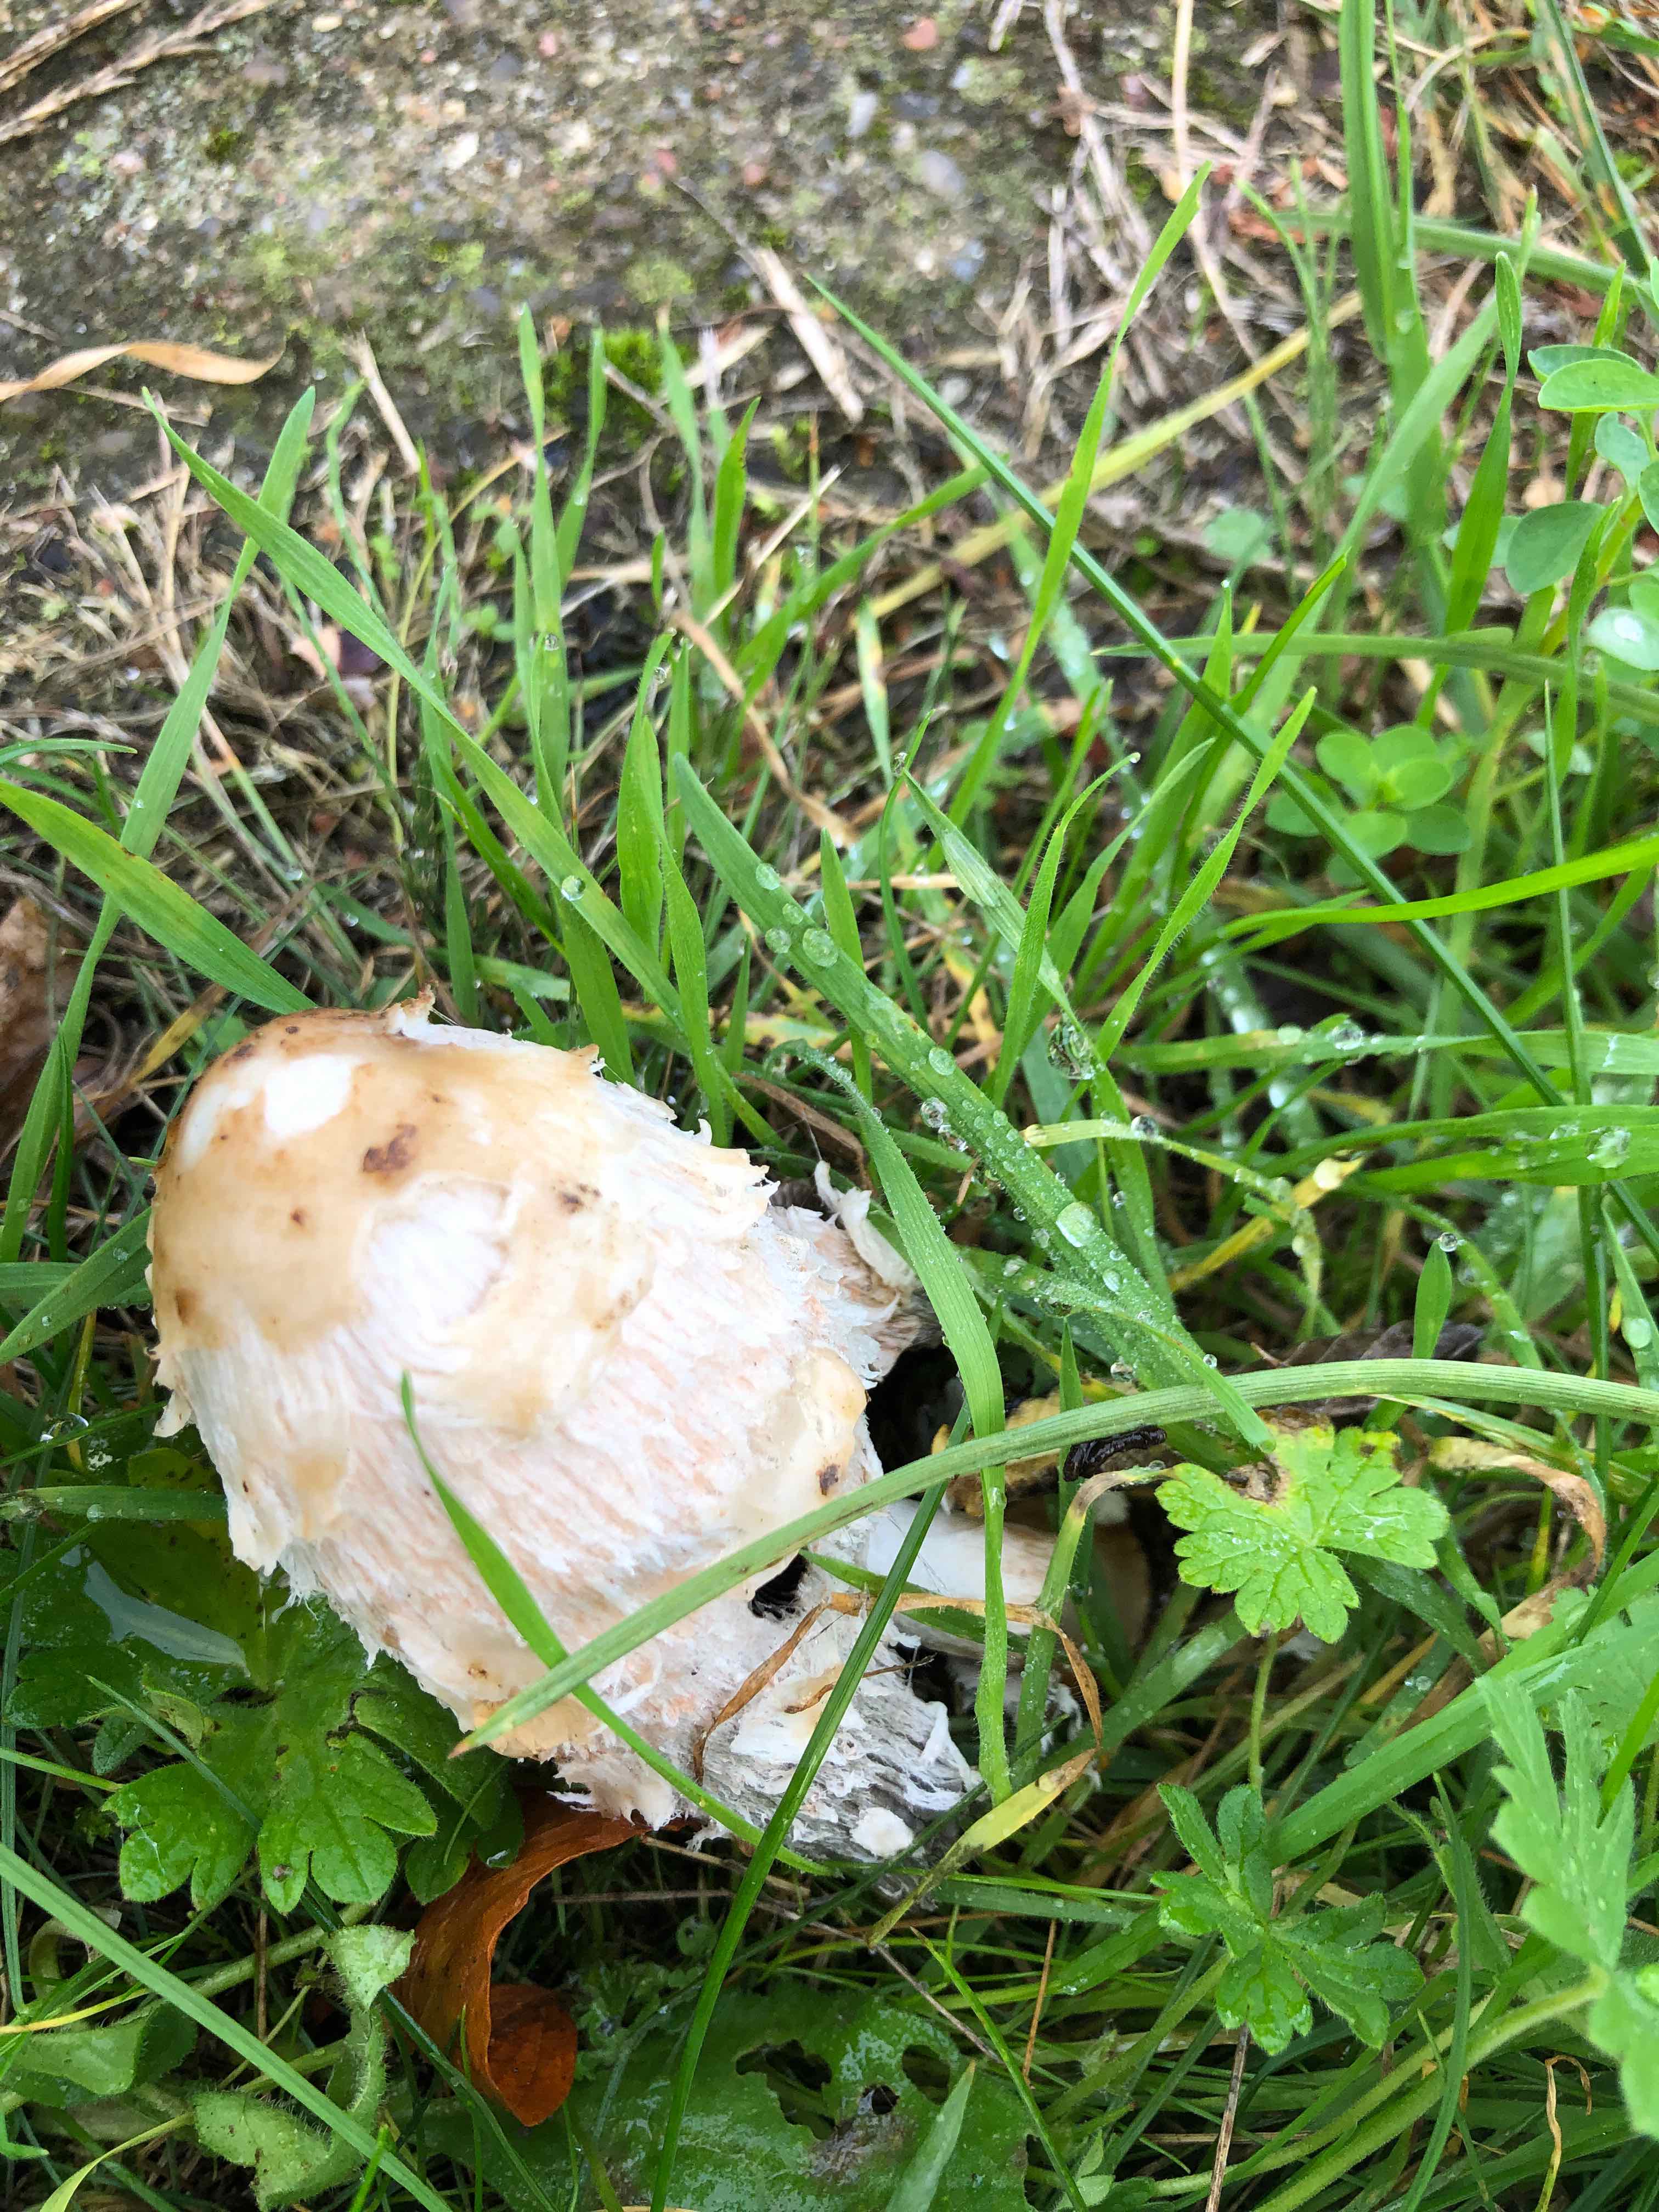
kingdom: Fungi
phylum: Basidiomycota
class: Agaricomycetes
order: Agaricales
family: Agaricaceae
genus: Coprinus
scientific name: Coprinus comatus
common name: stor parykhat
